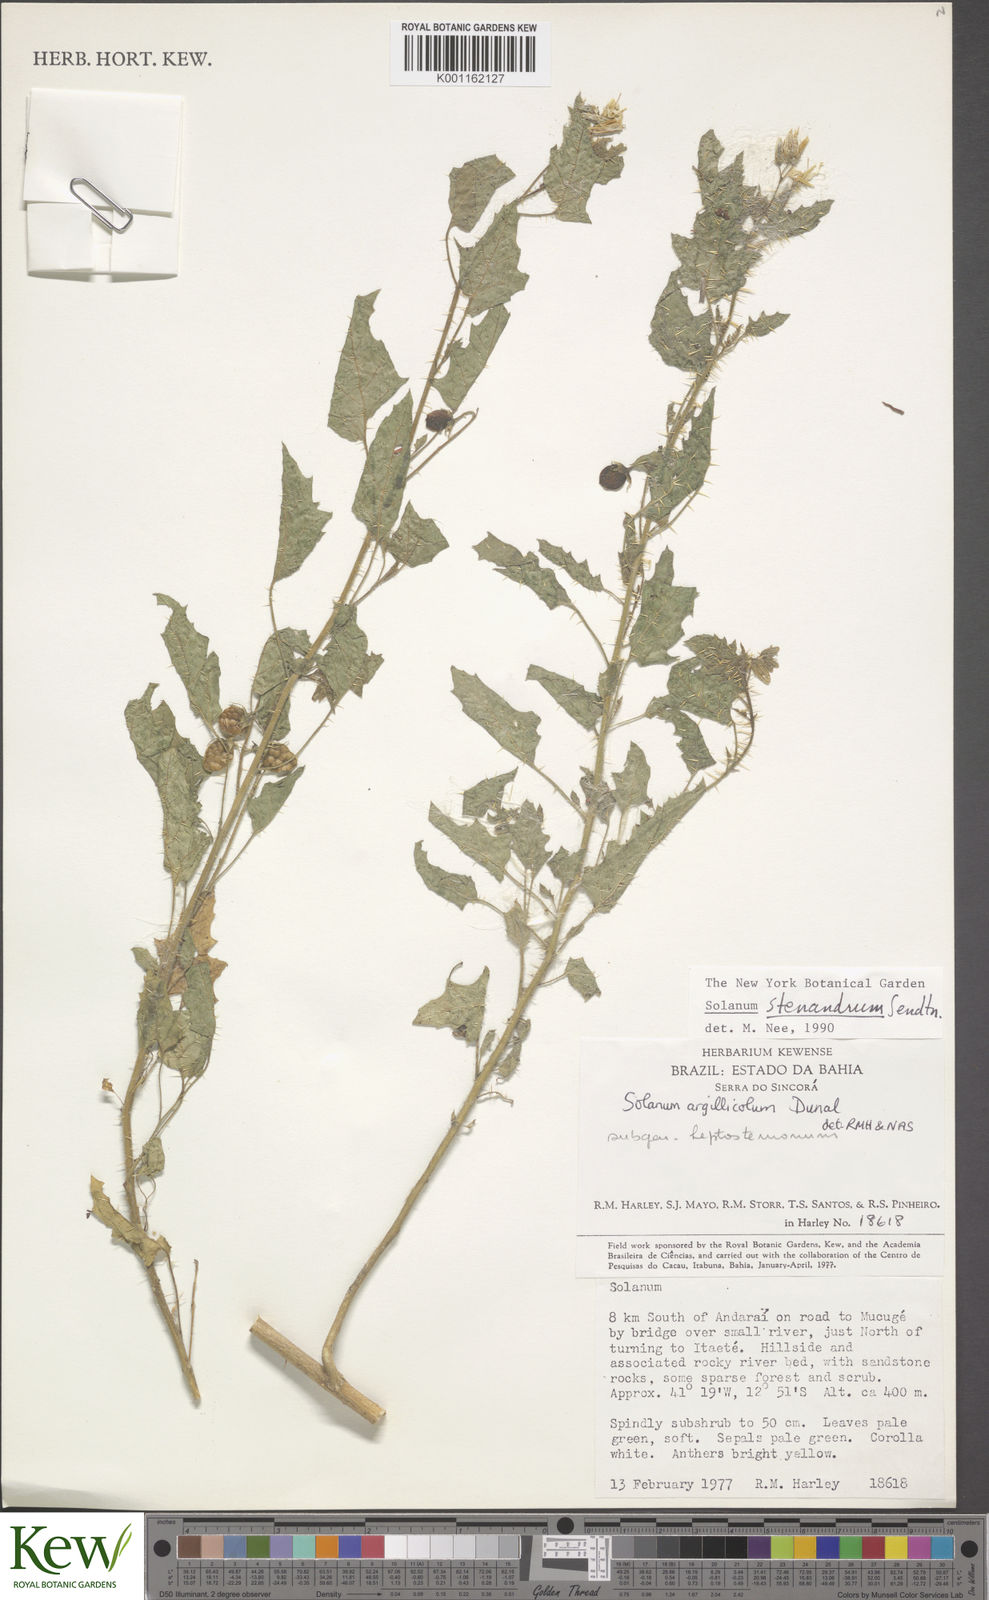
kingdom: Plantae
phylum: Tracheophyta
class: Magnoliopsida
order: Solanales
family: Solanaceae
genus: Solanum
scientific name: Solanum stenandrum
